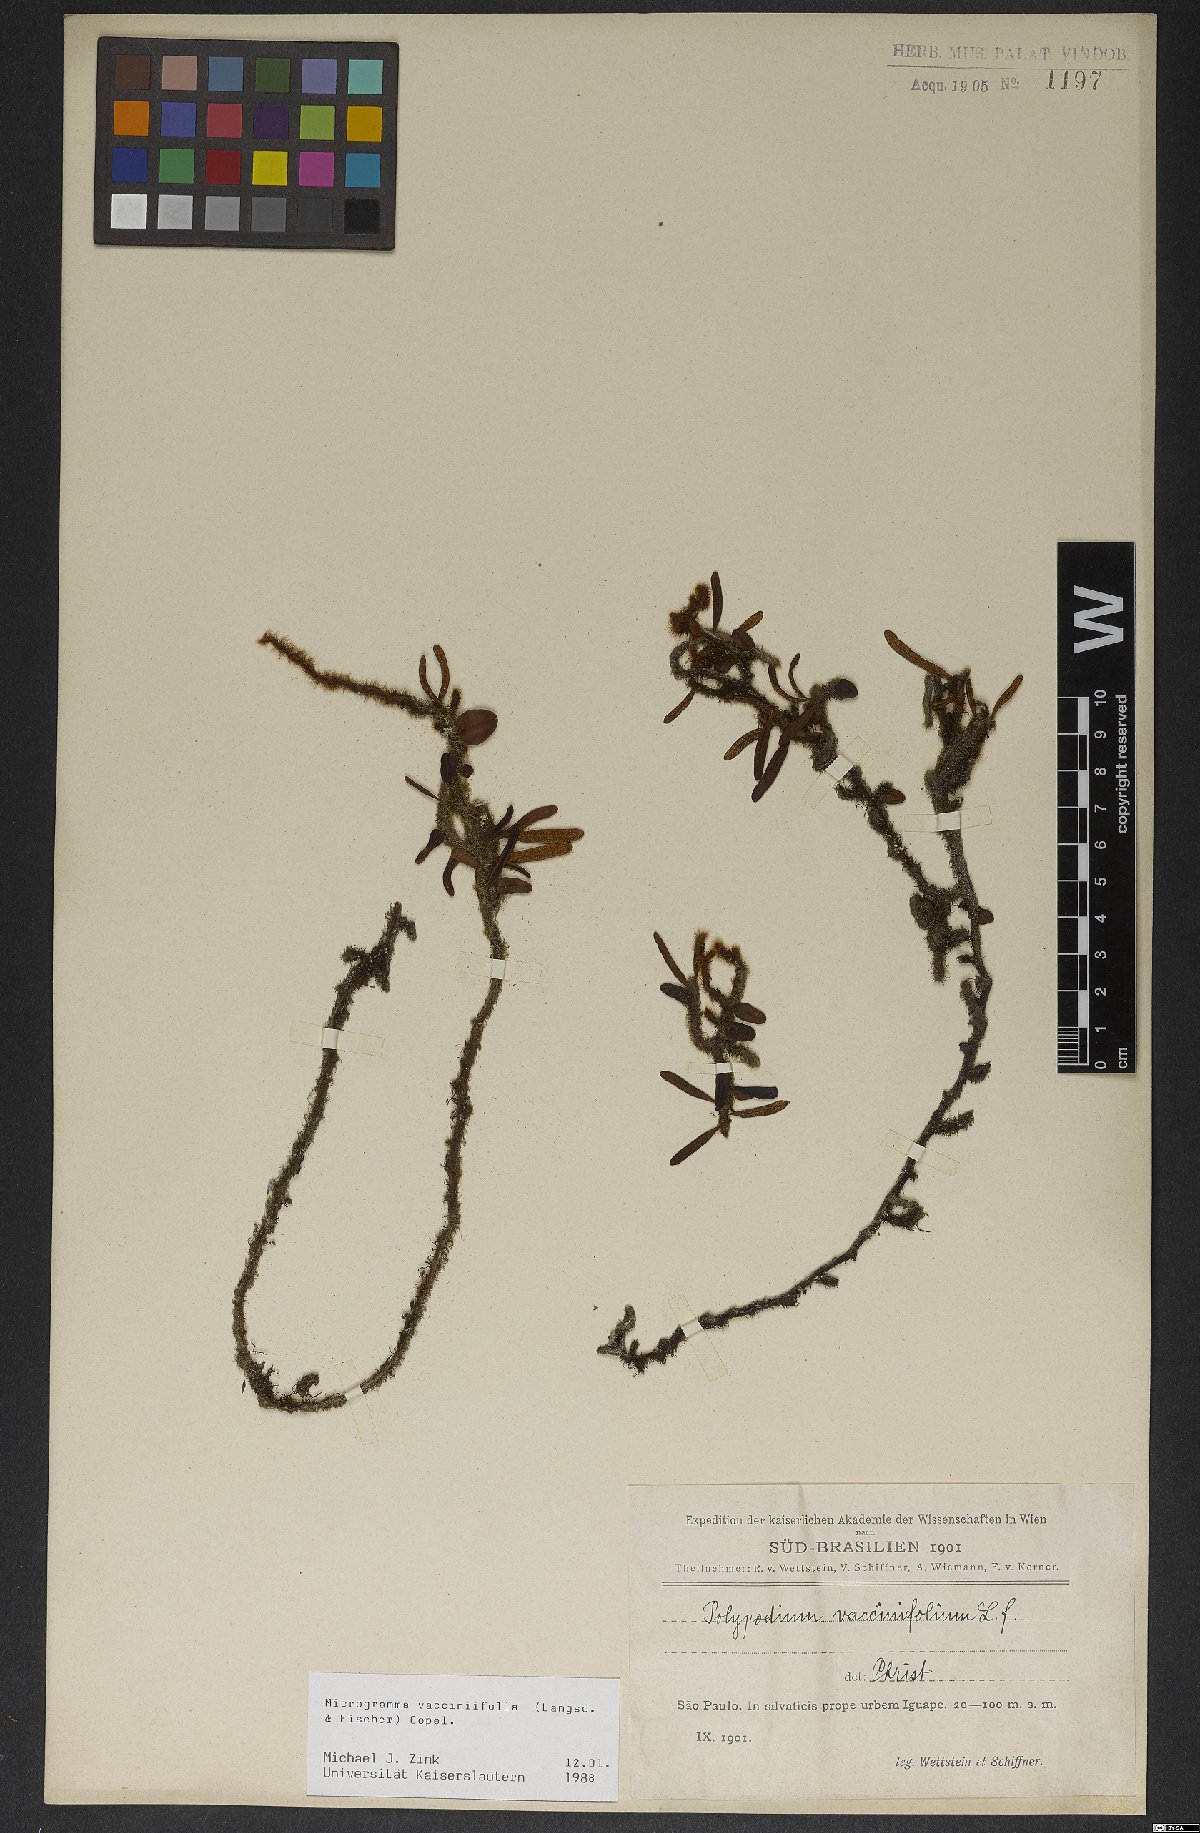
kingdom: Plantae
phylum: Tracheophyta
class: Polypodiopsida
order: Polypodiales
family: Polypodiaceae
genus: Microgramma
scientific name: Microgramma vaccinifolia
